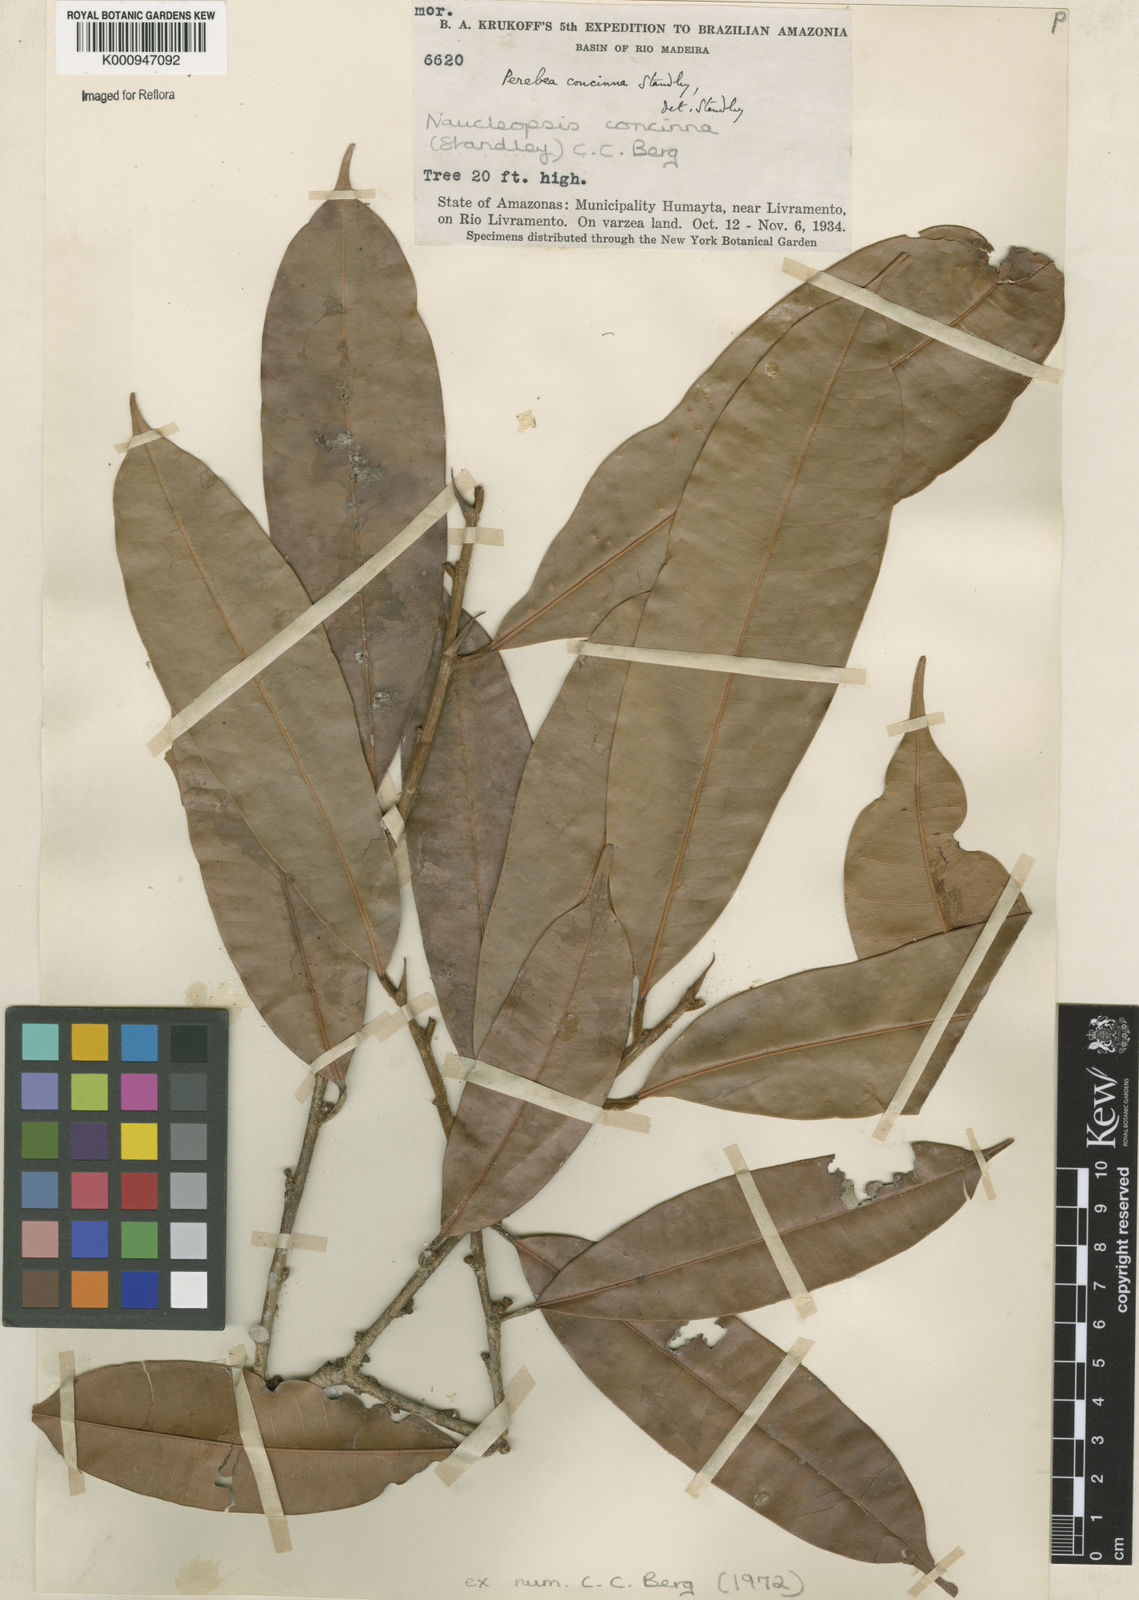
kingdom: Plantae
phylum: Tracheophyta
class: Magnoliopsida
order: Rosales
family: Moraceae
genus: Naucleopsis
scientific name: Naucleopsis concinna
